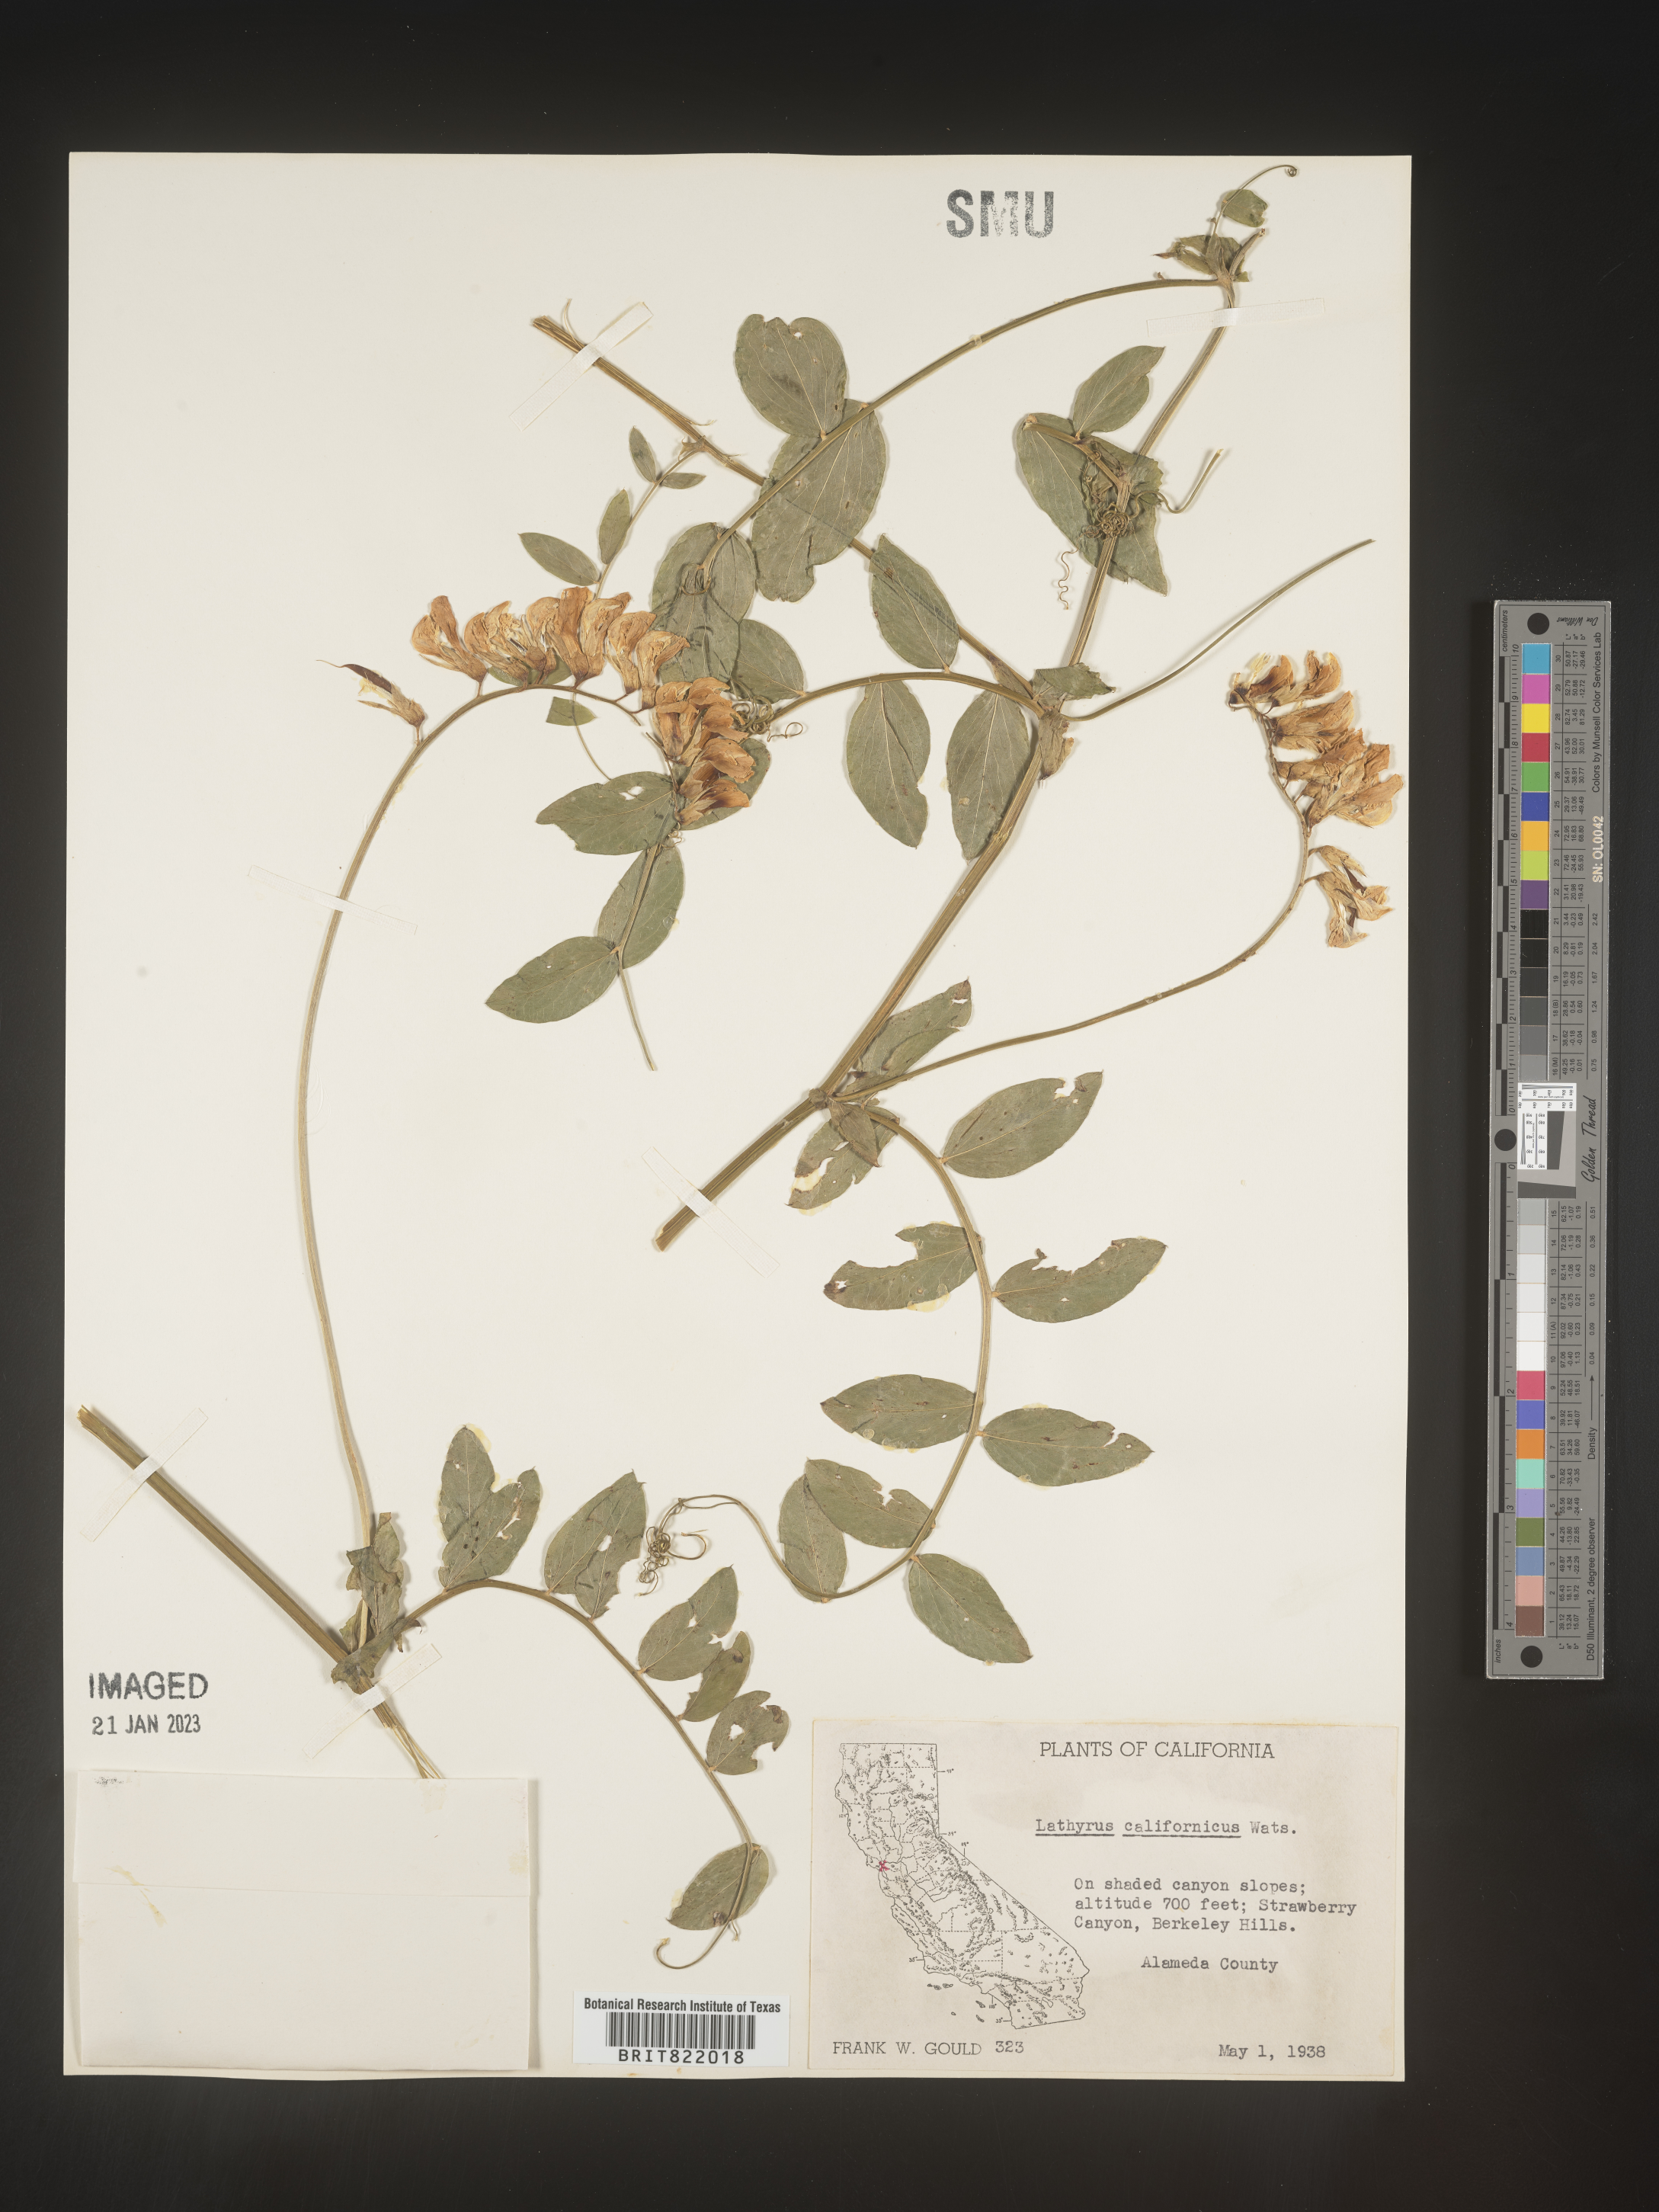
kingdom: Plantae
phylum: Tracheophyta
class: Magnoliopsida
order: Fabales
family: Fabaceae
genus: Lathyrus
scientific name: Lathyrus
